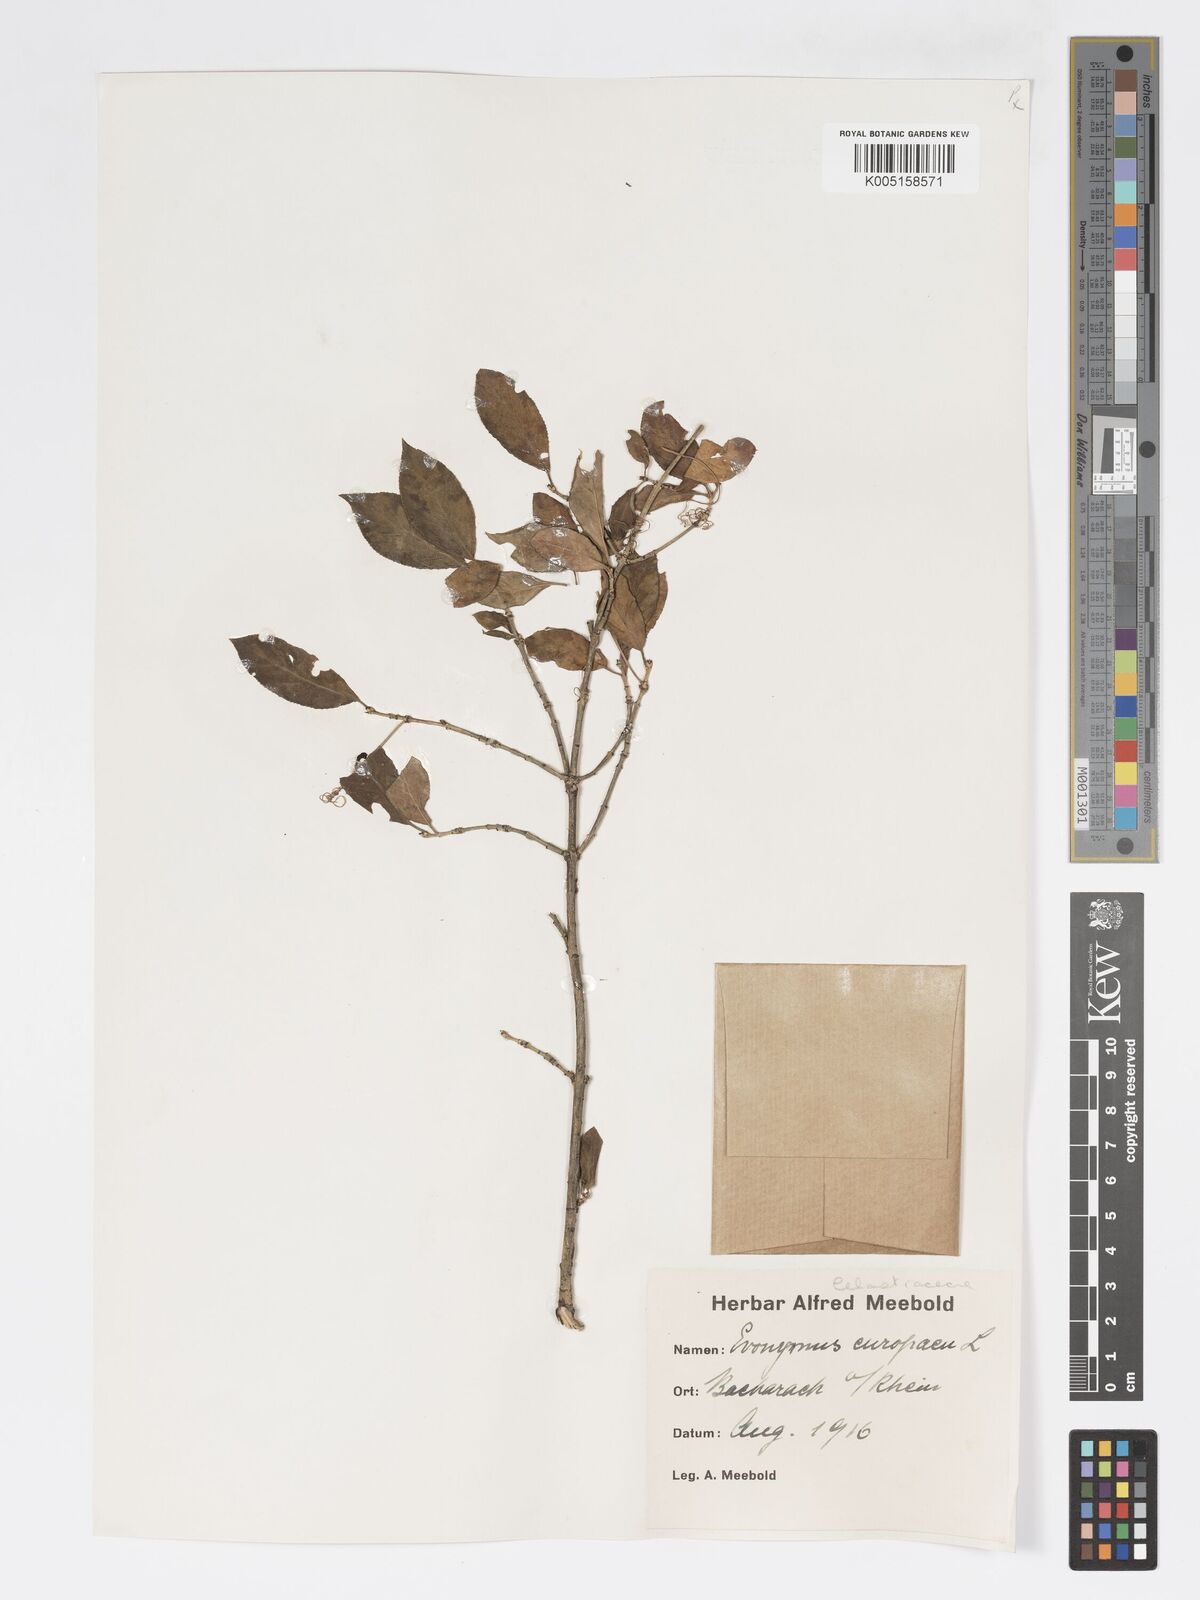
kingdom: Plantae
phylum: Tracheophyta
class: Magnoliopsida
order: Celastrales
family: Celastraceae
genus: Euonymus
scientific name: Euonymus europaeus
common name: Spindle
